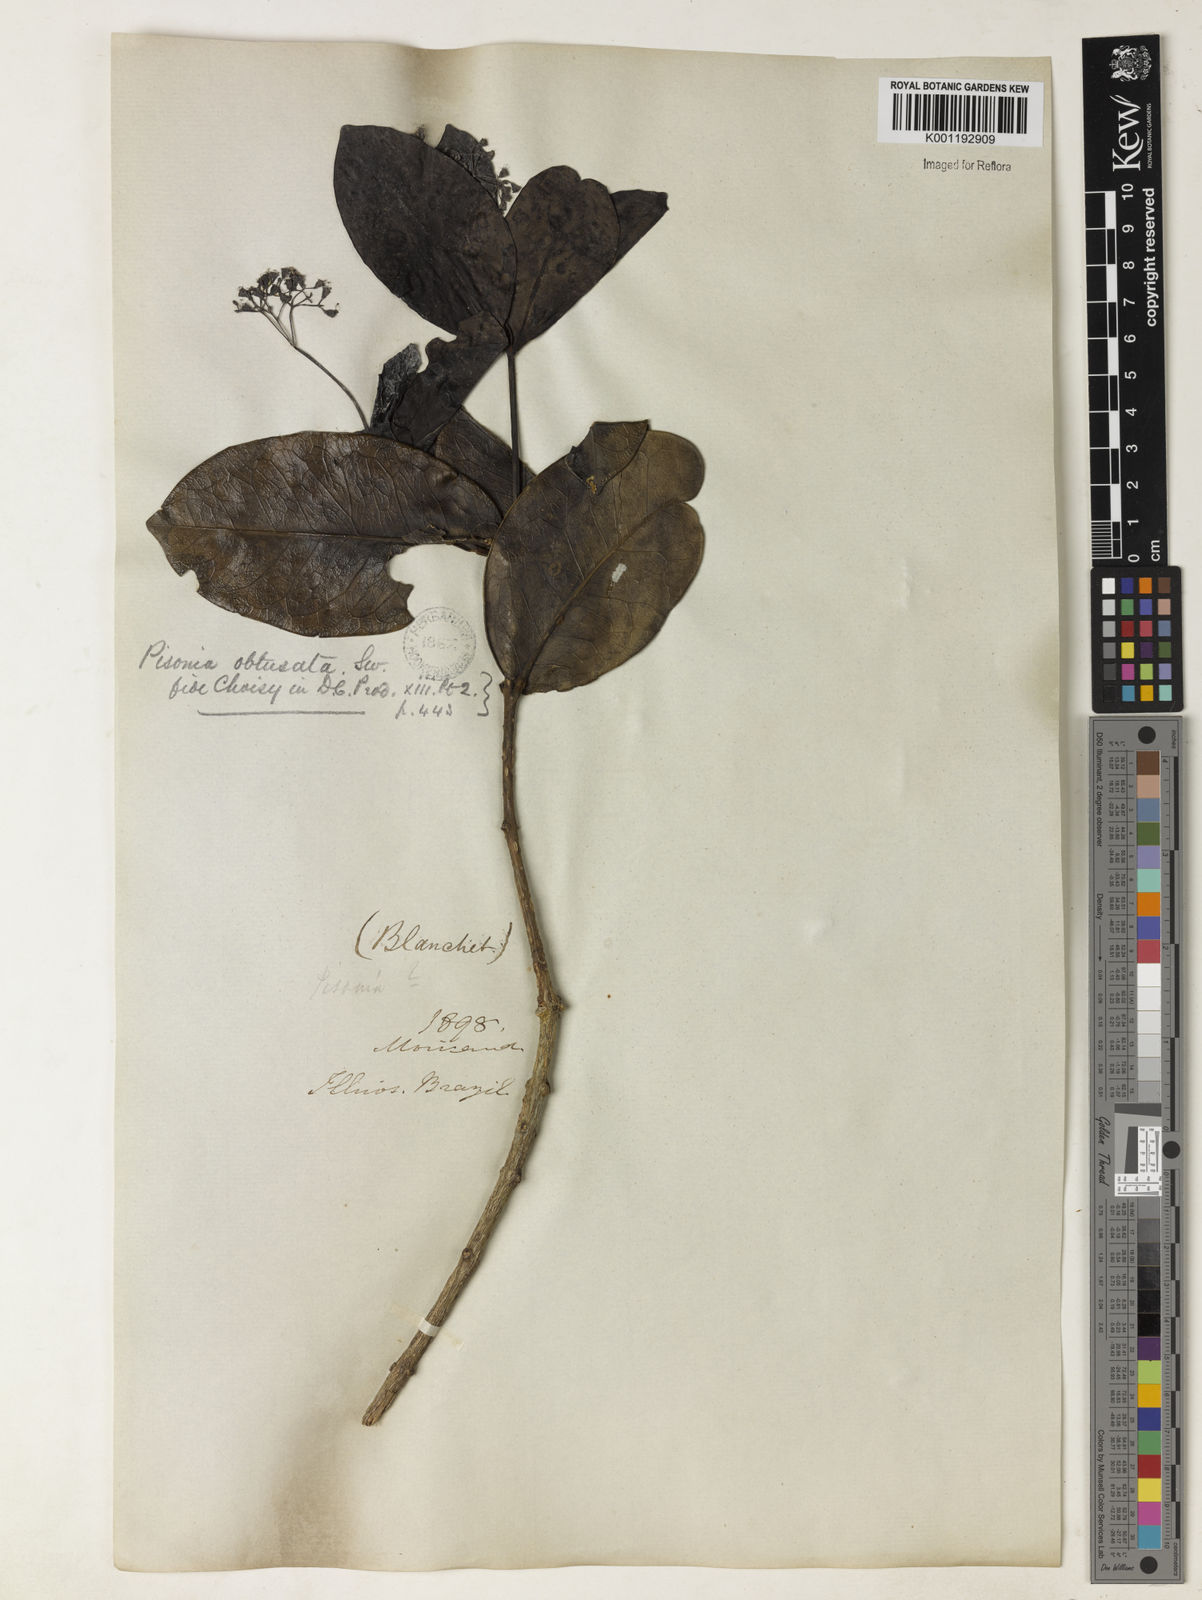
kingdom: Plantae
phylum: Tracheophyta
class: Magnoliopsida
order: Caryophyllales
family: Nyctaginaceae
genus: Guapira
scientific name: Guapira obtusata
